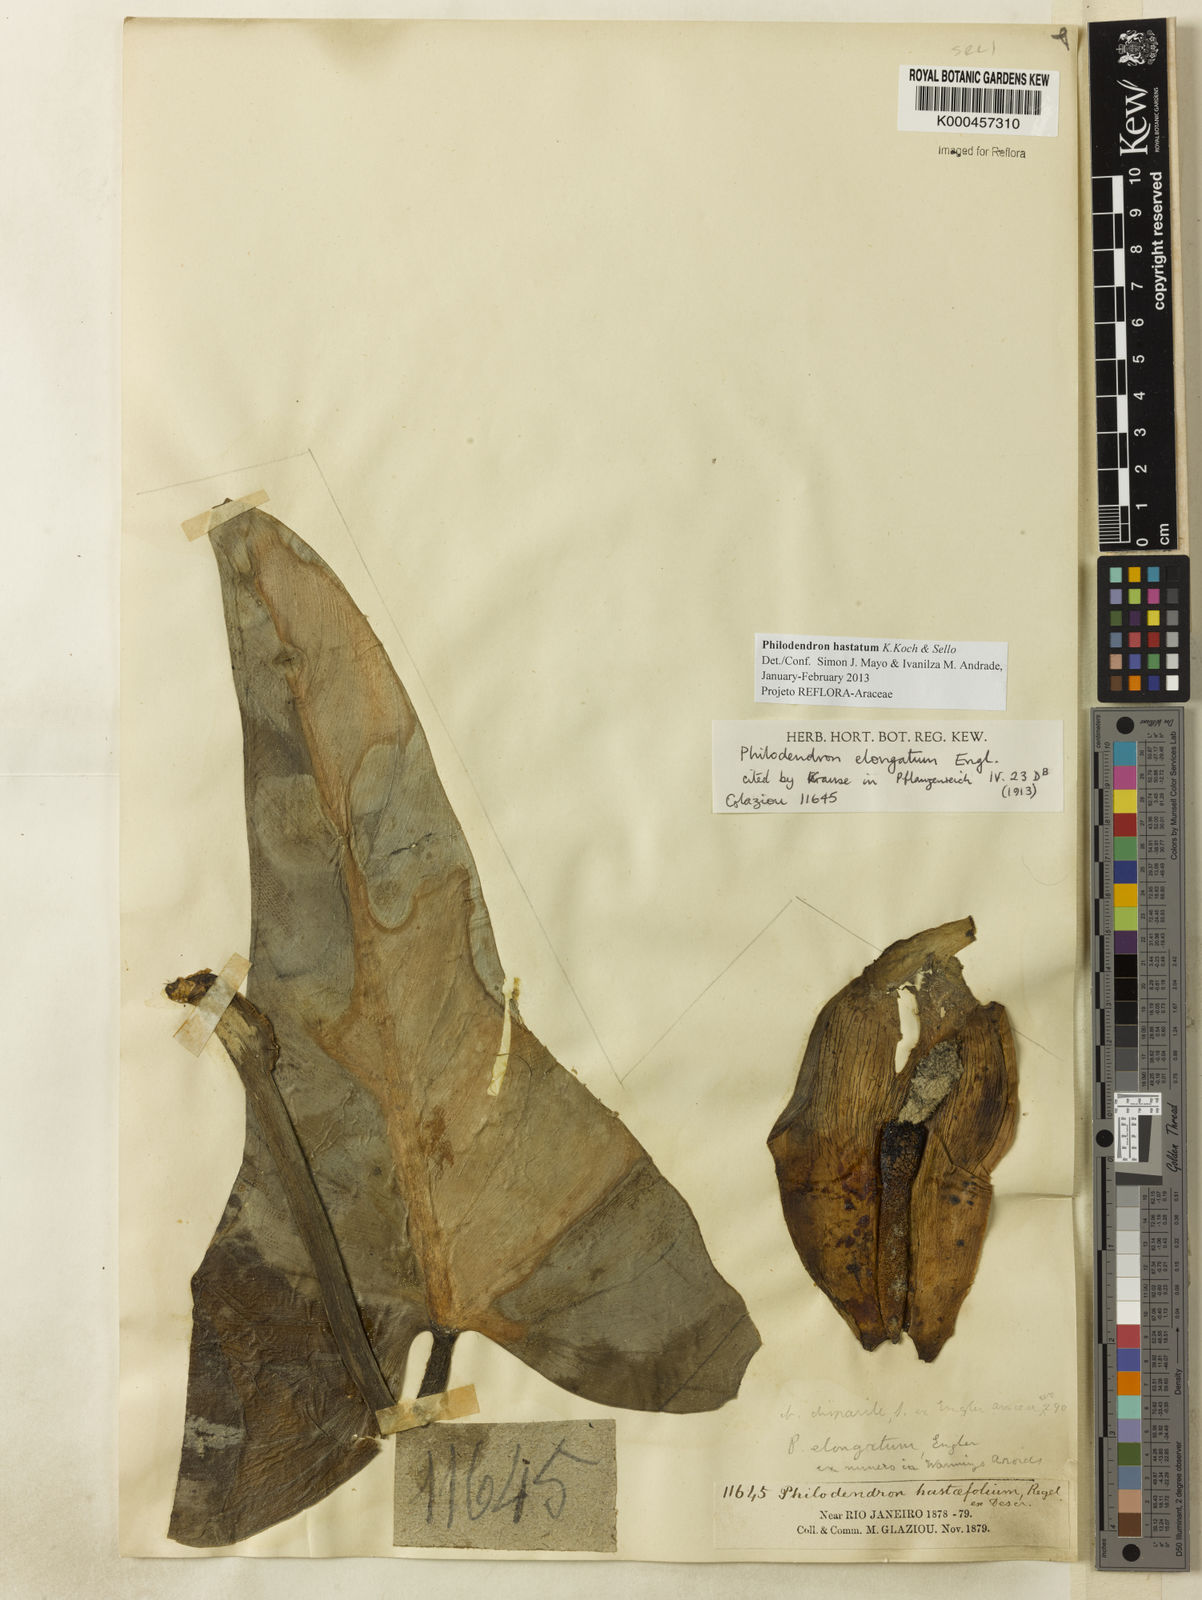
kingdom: Plantae
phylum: Tracheophyta
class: Liliopsida
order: Alismatales
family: Araceae
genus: Philodendron
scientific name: Philodendron hastatum
